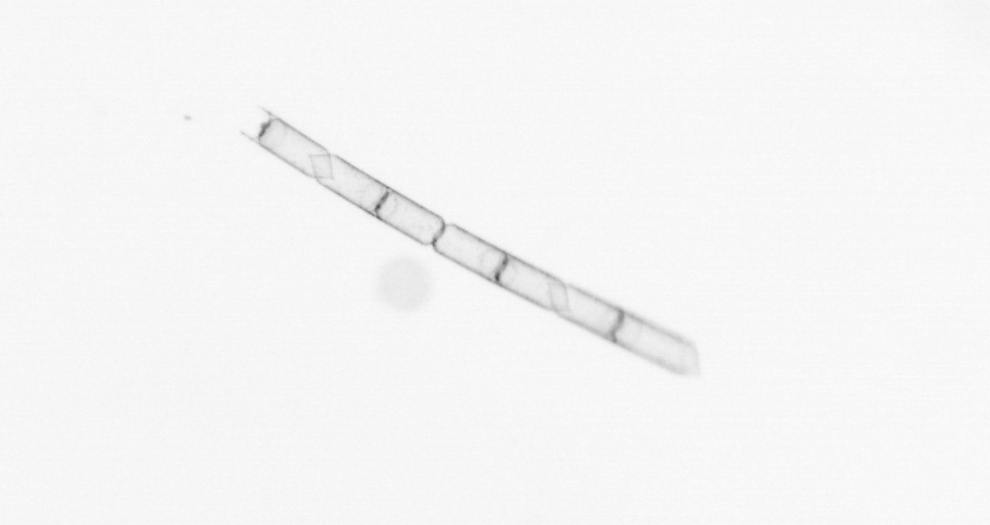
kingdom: Chromista
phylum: Ochrophyta
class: Bacillariophyceae
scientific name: Bacillariophyceae
